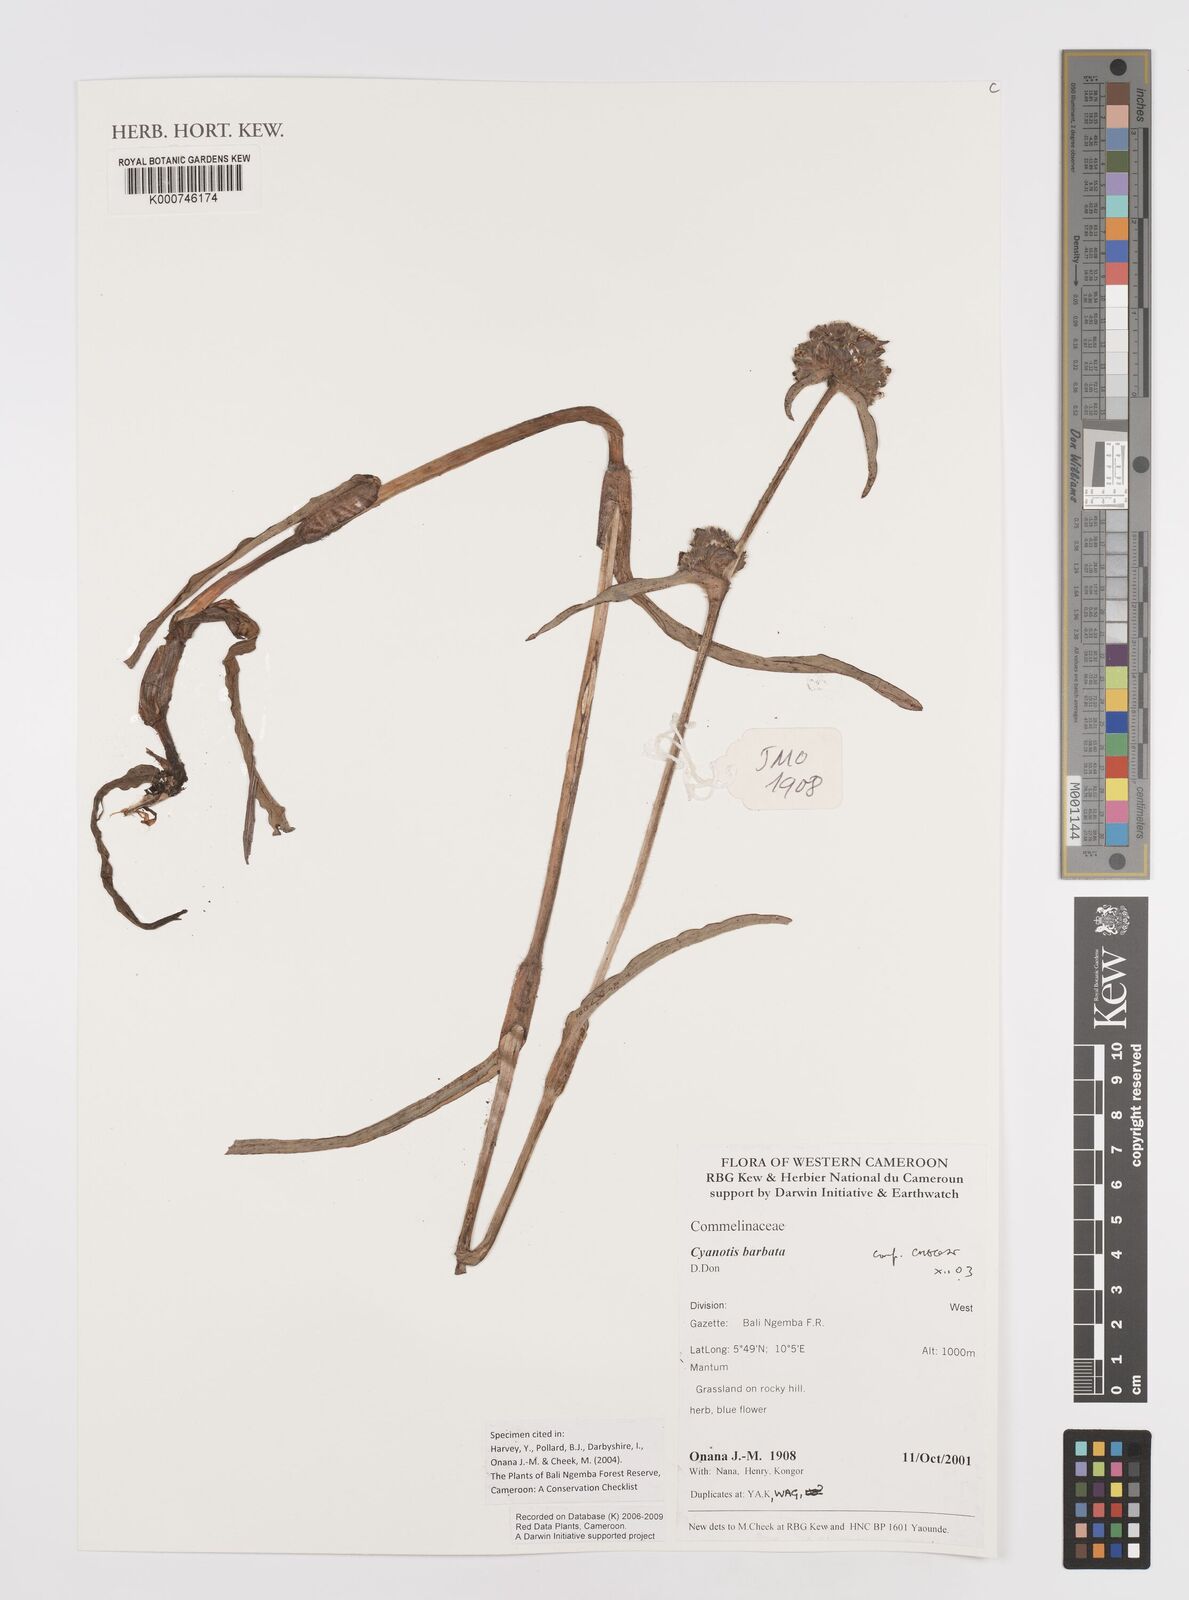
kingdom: Plantae
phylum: Tracheophyta
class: Liliopsida
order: Commelinales
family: Commelinaceae
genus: Cyanotis
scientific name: Cyanotis vaga
